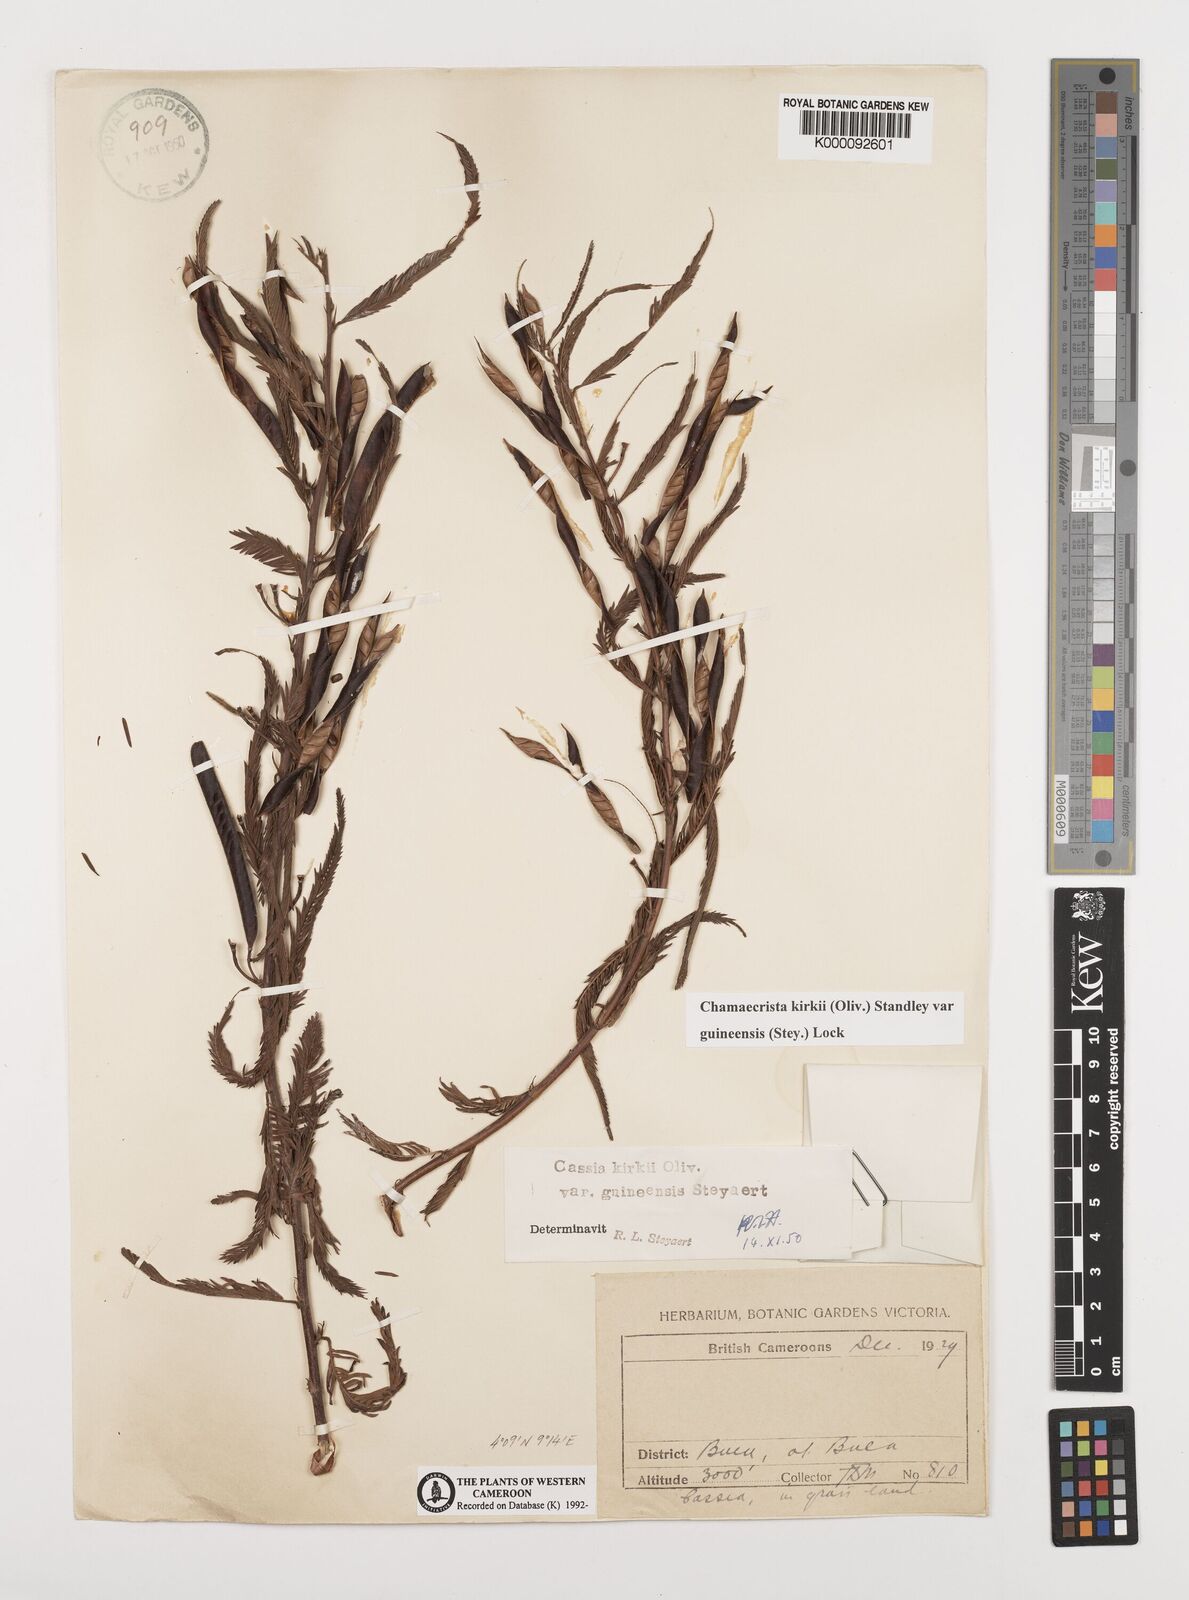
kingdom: Plantae
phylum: Tracheophyta
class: Magnoliopsida
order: Fabales
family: Fabaceae
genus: Chamaecrista
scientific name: Chamaecrista kirkii
